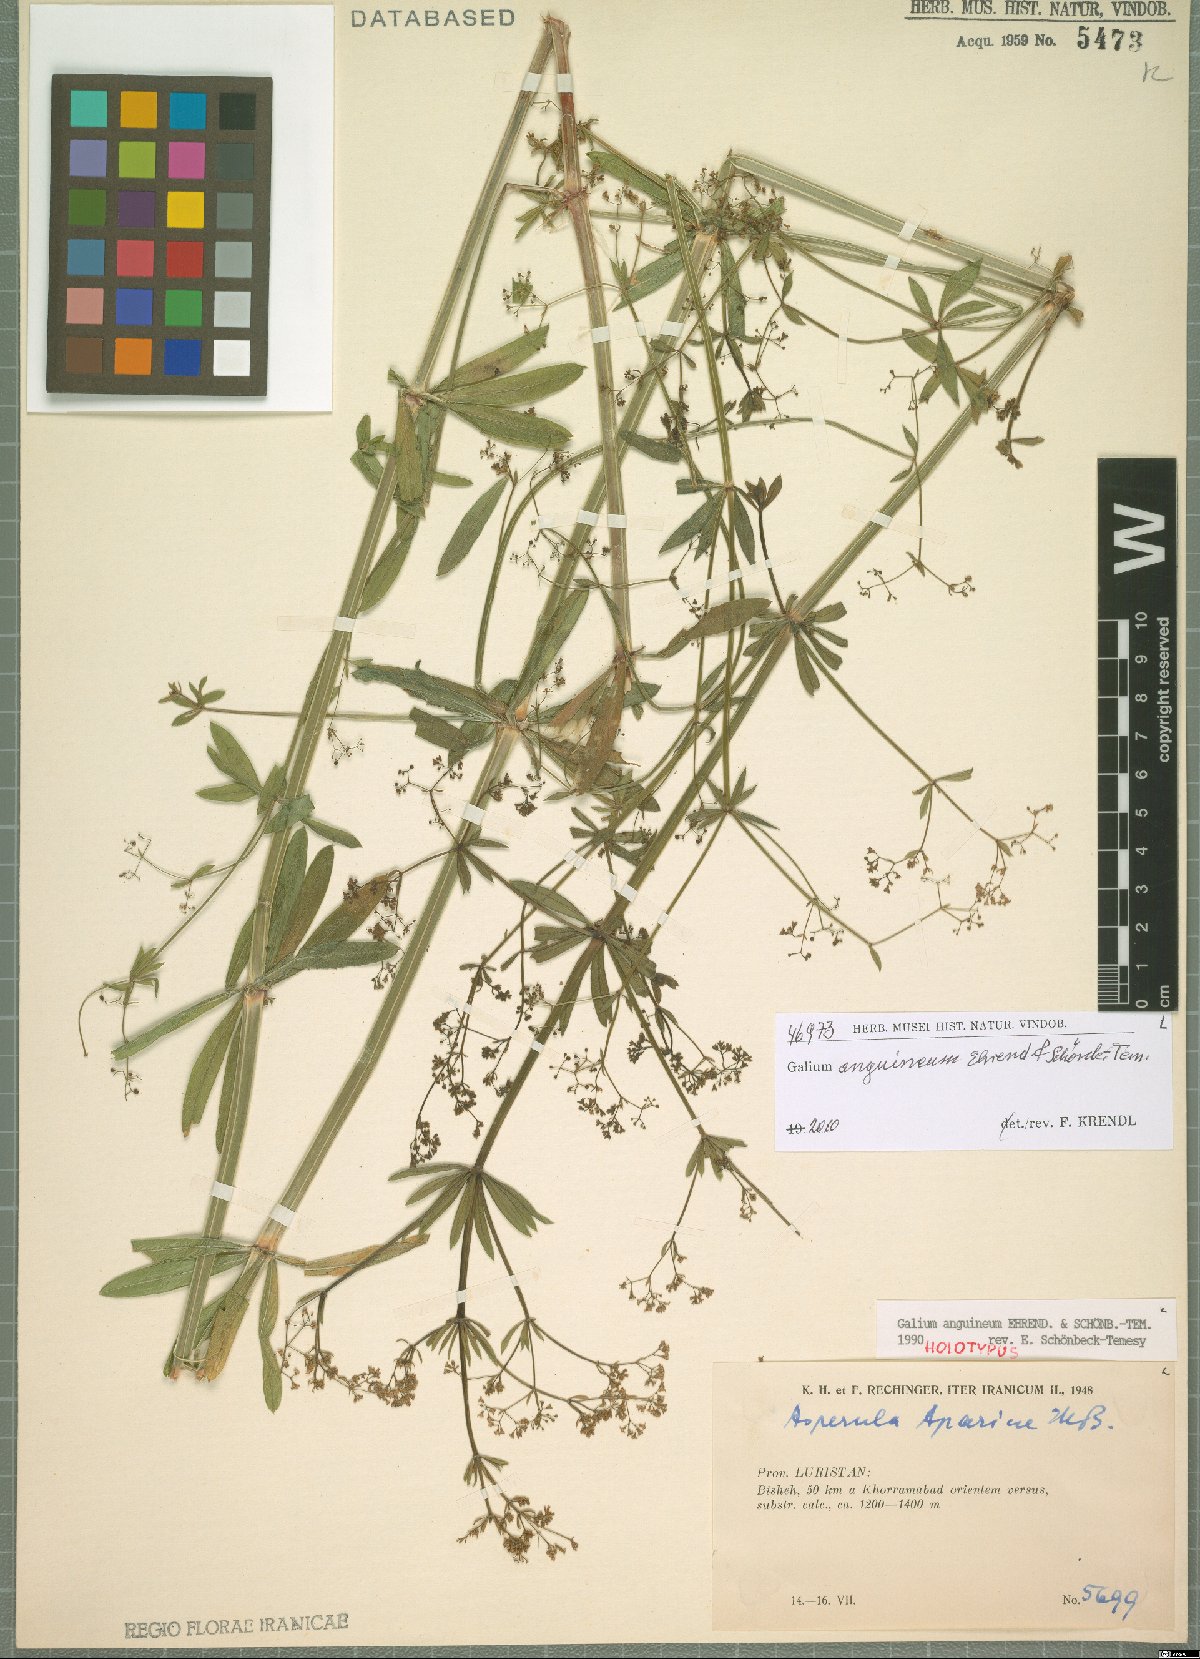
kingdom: Plantae
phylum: Tracheophyta
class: Magnoliopsida
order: Gentianales
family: Rubiaceae
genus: Galium
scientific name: Galium anguineum
